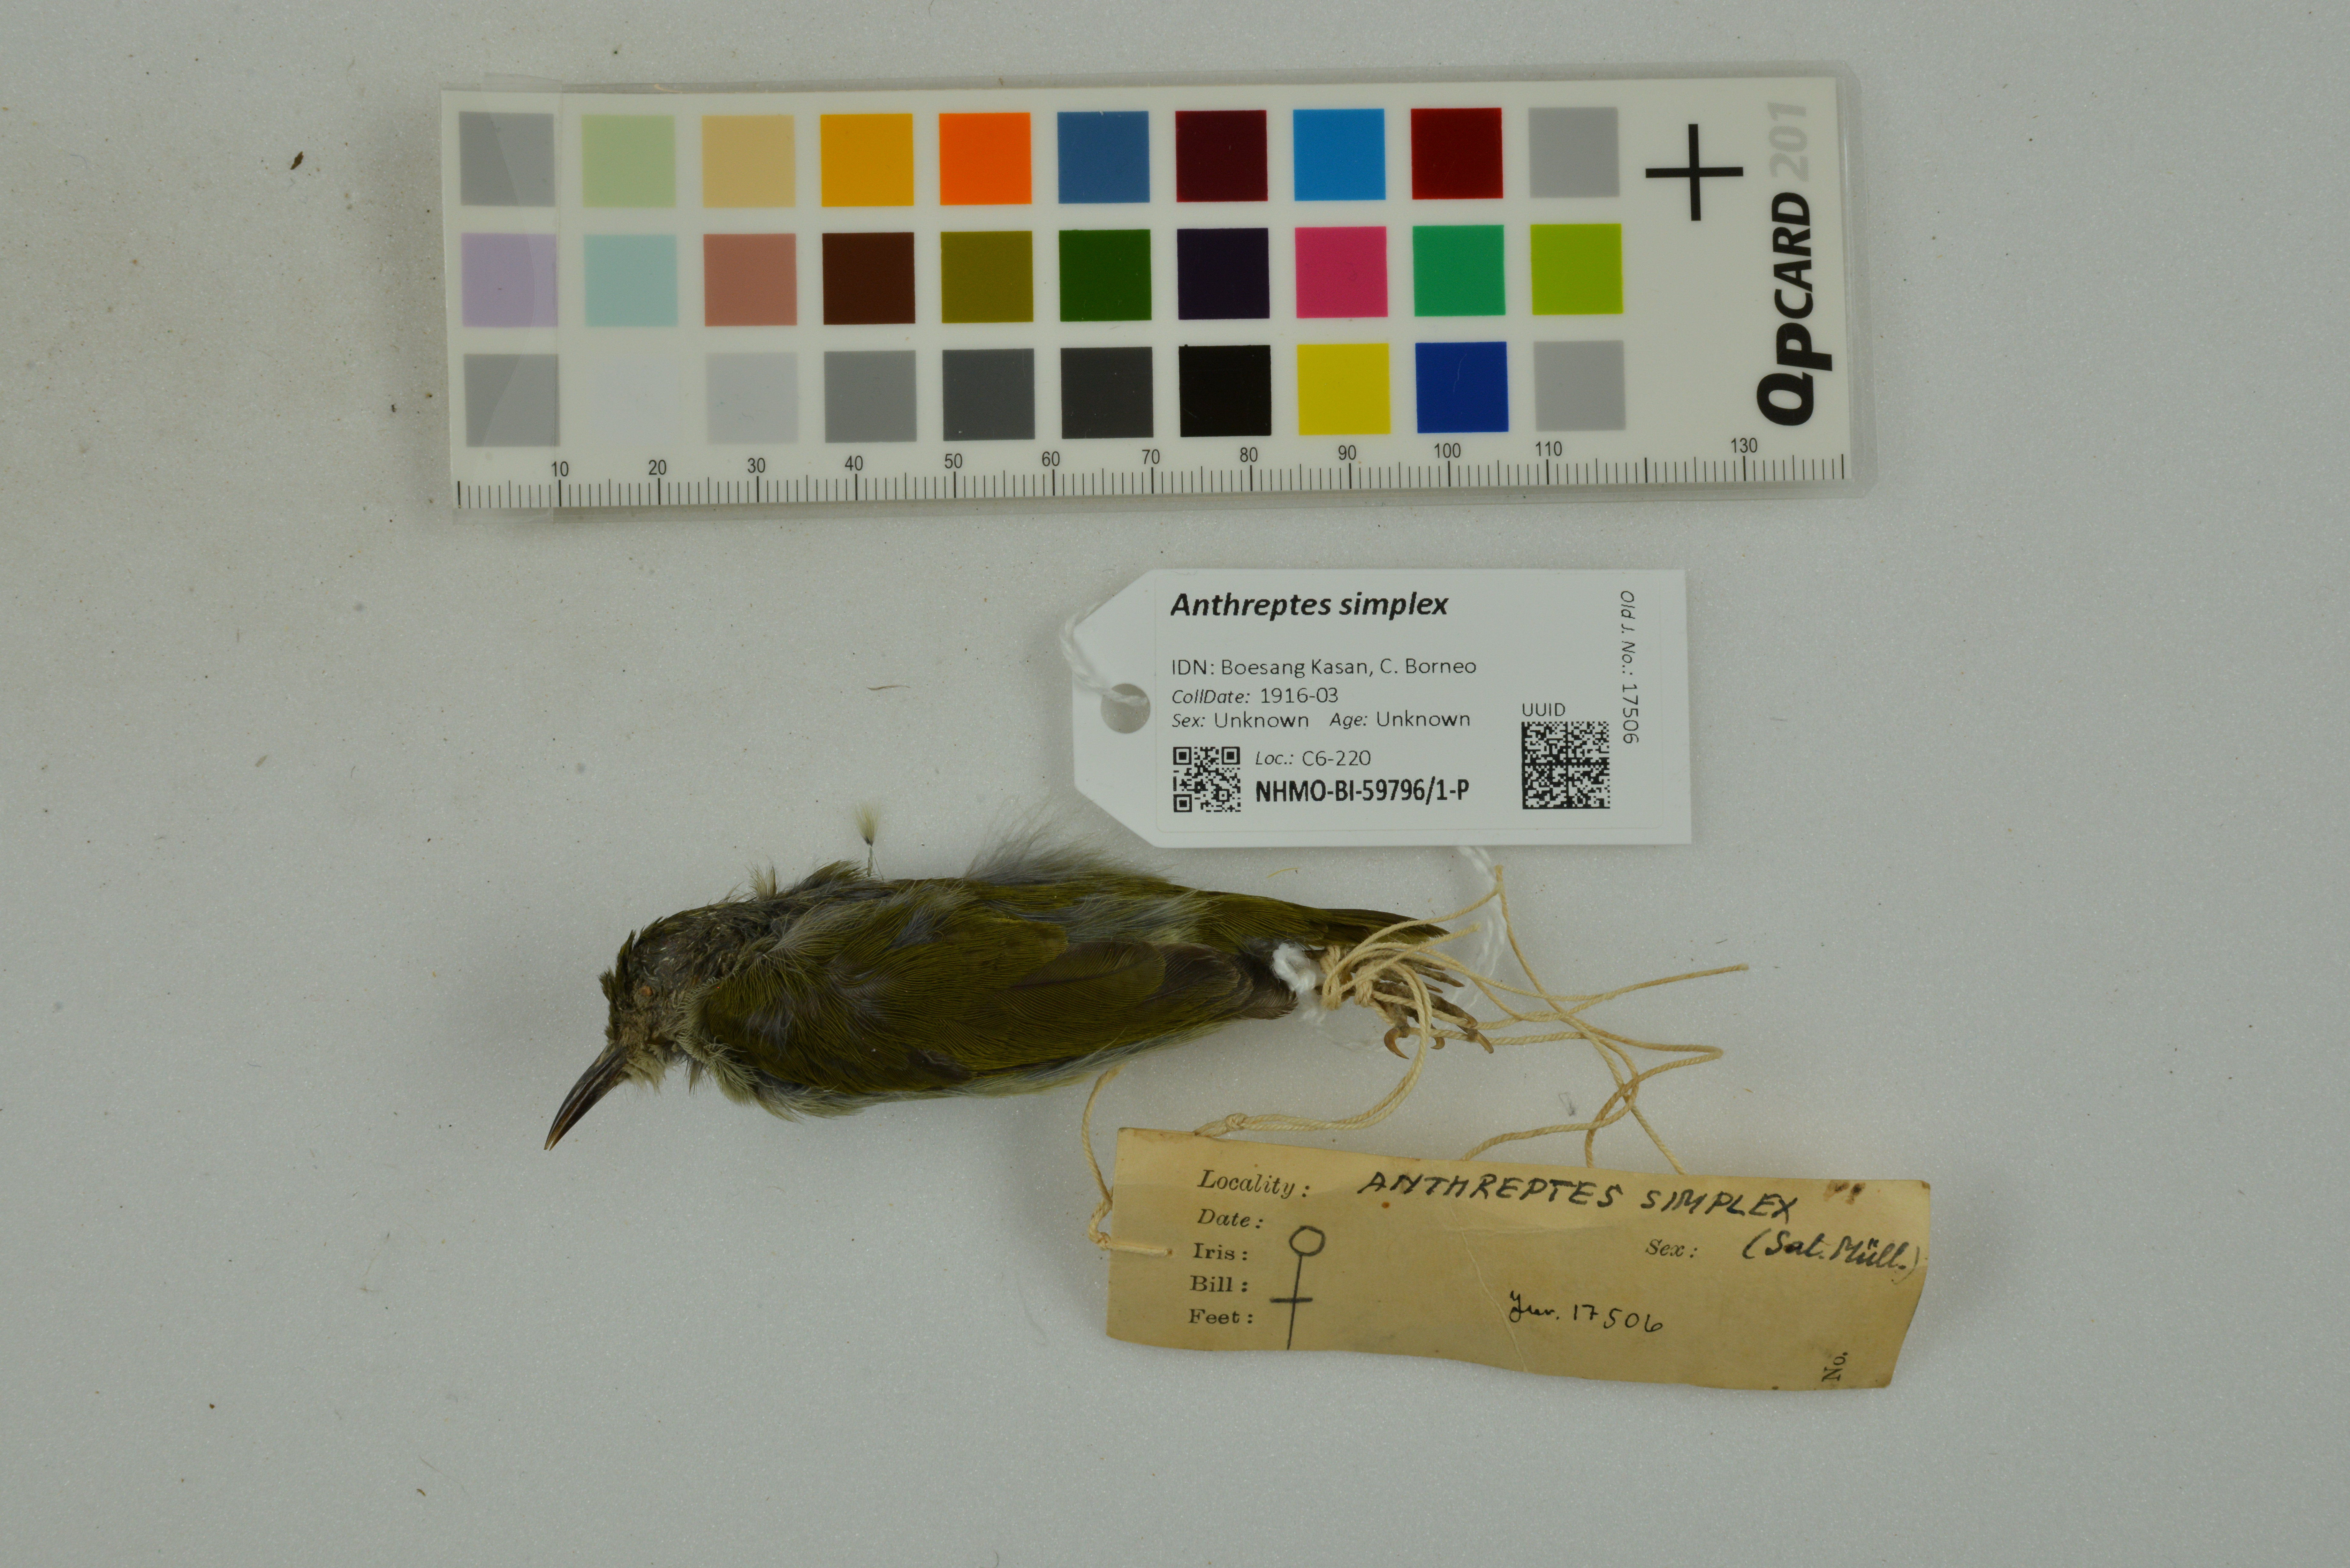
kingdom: Animalia
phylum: Chordata
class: Aves
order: Passeriformes
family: Nectariniidae
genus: Anthreptes
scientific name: Anthreptes simplex
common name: Plain sunbird
